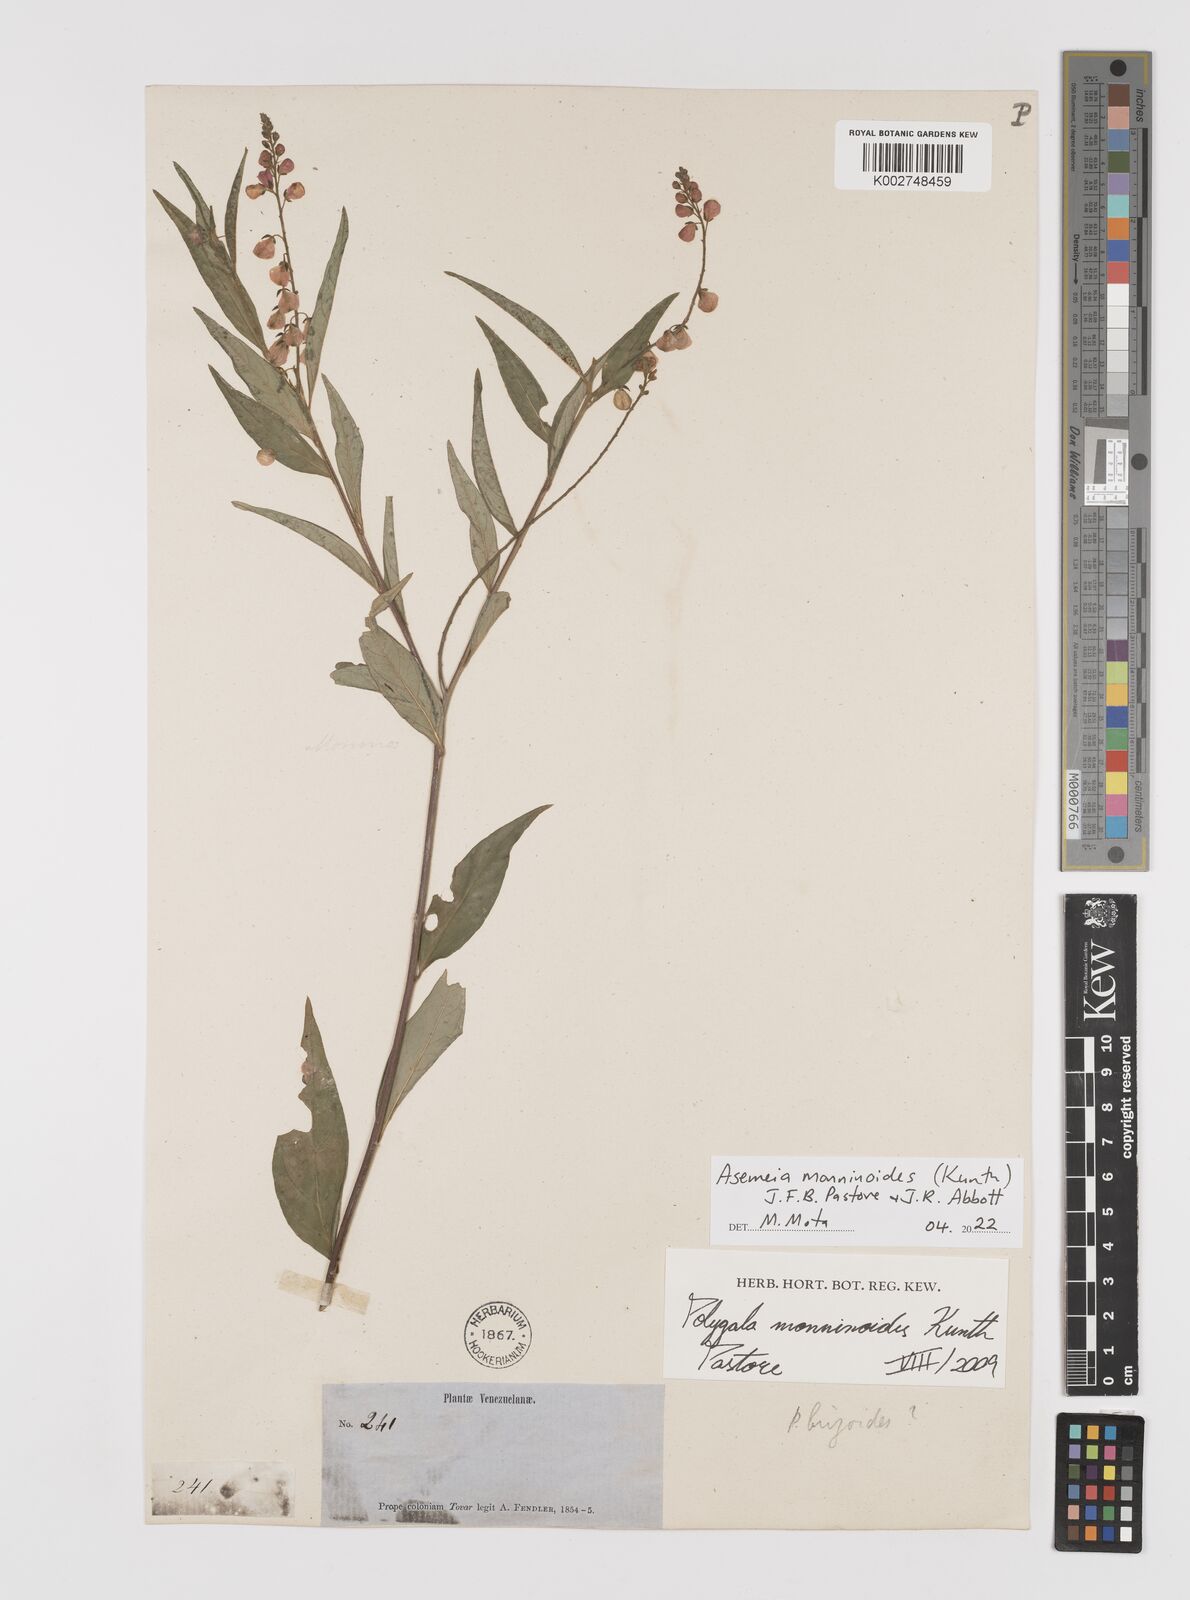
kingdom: Plantae
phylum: Tracheophyta
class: Magnoliopsida
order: Fabales
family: Polygalaceae
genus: Asemeia
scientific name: Asemeia monninoides
